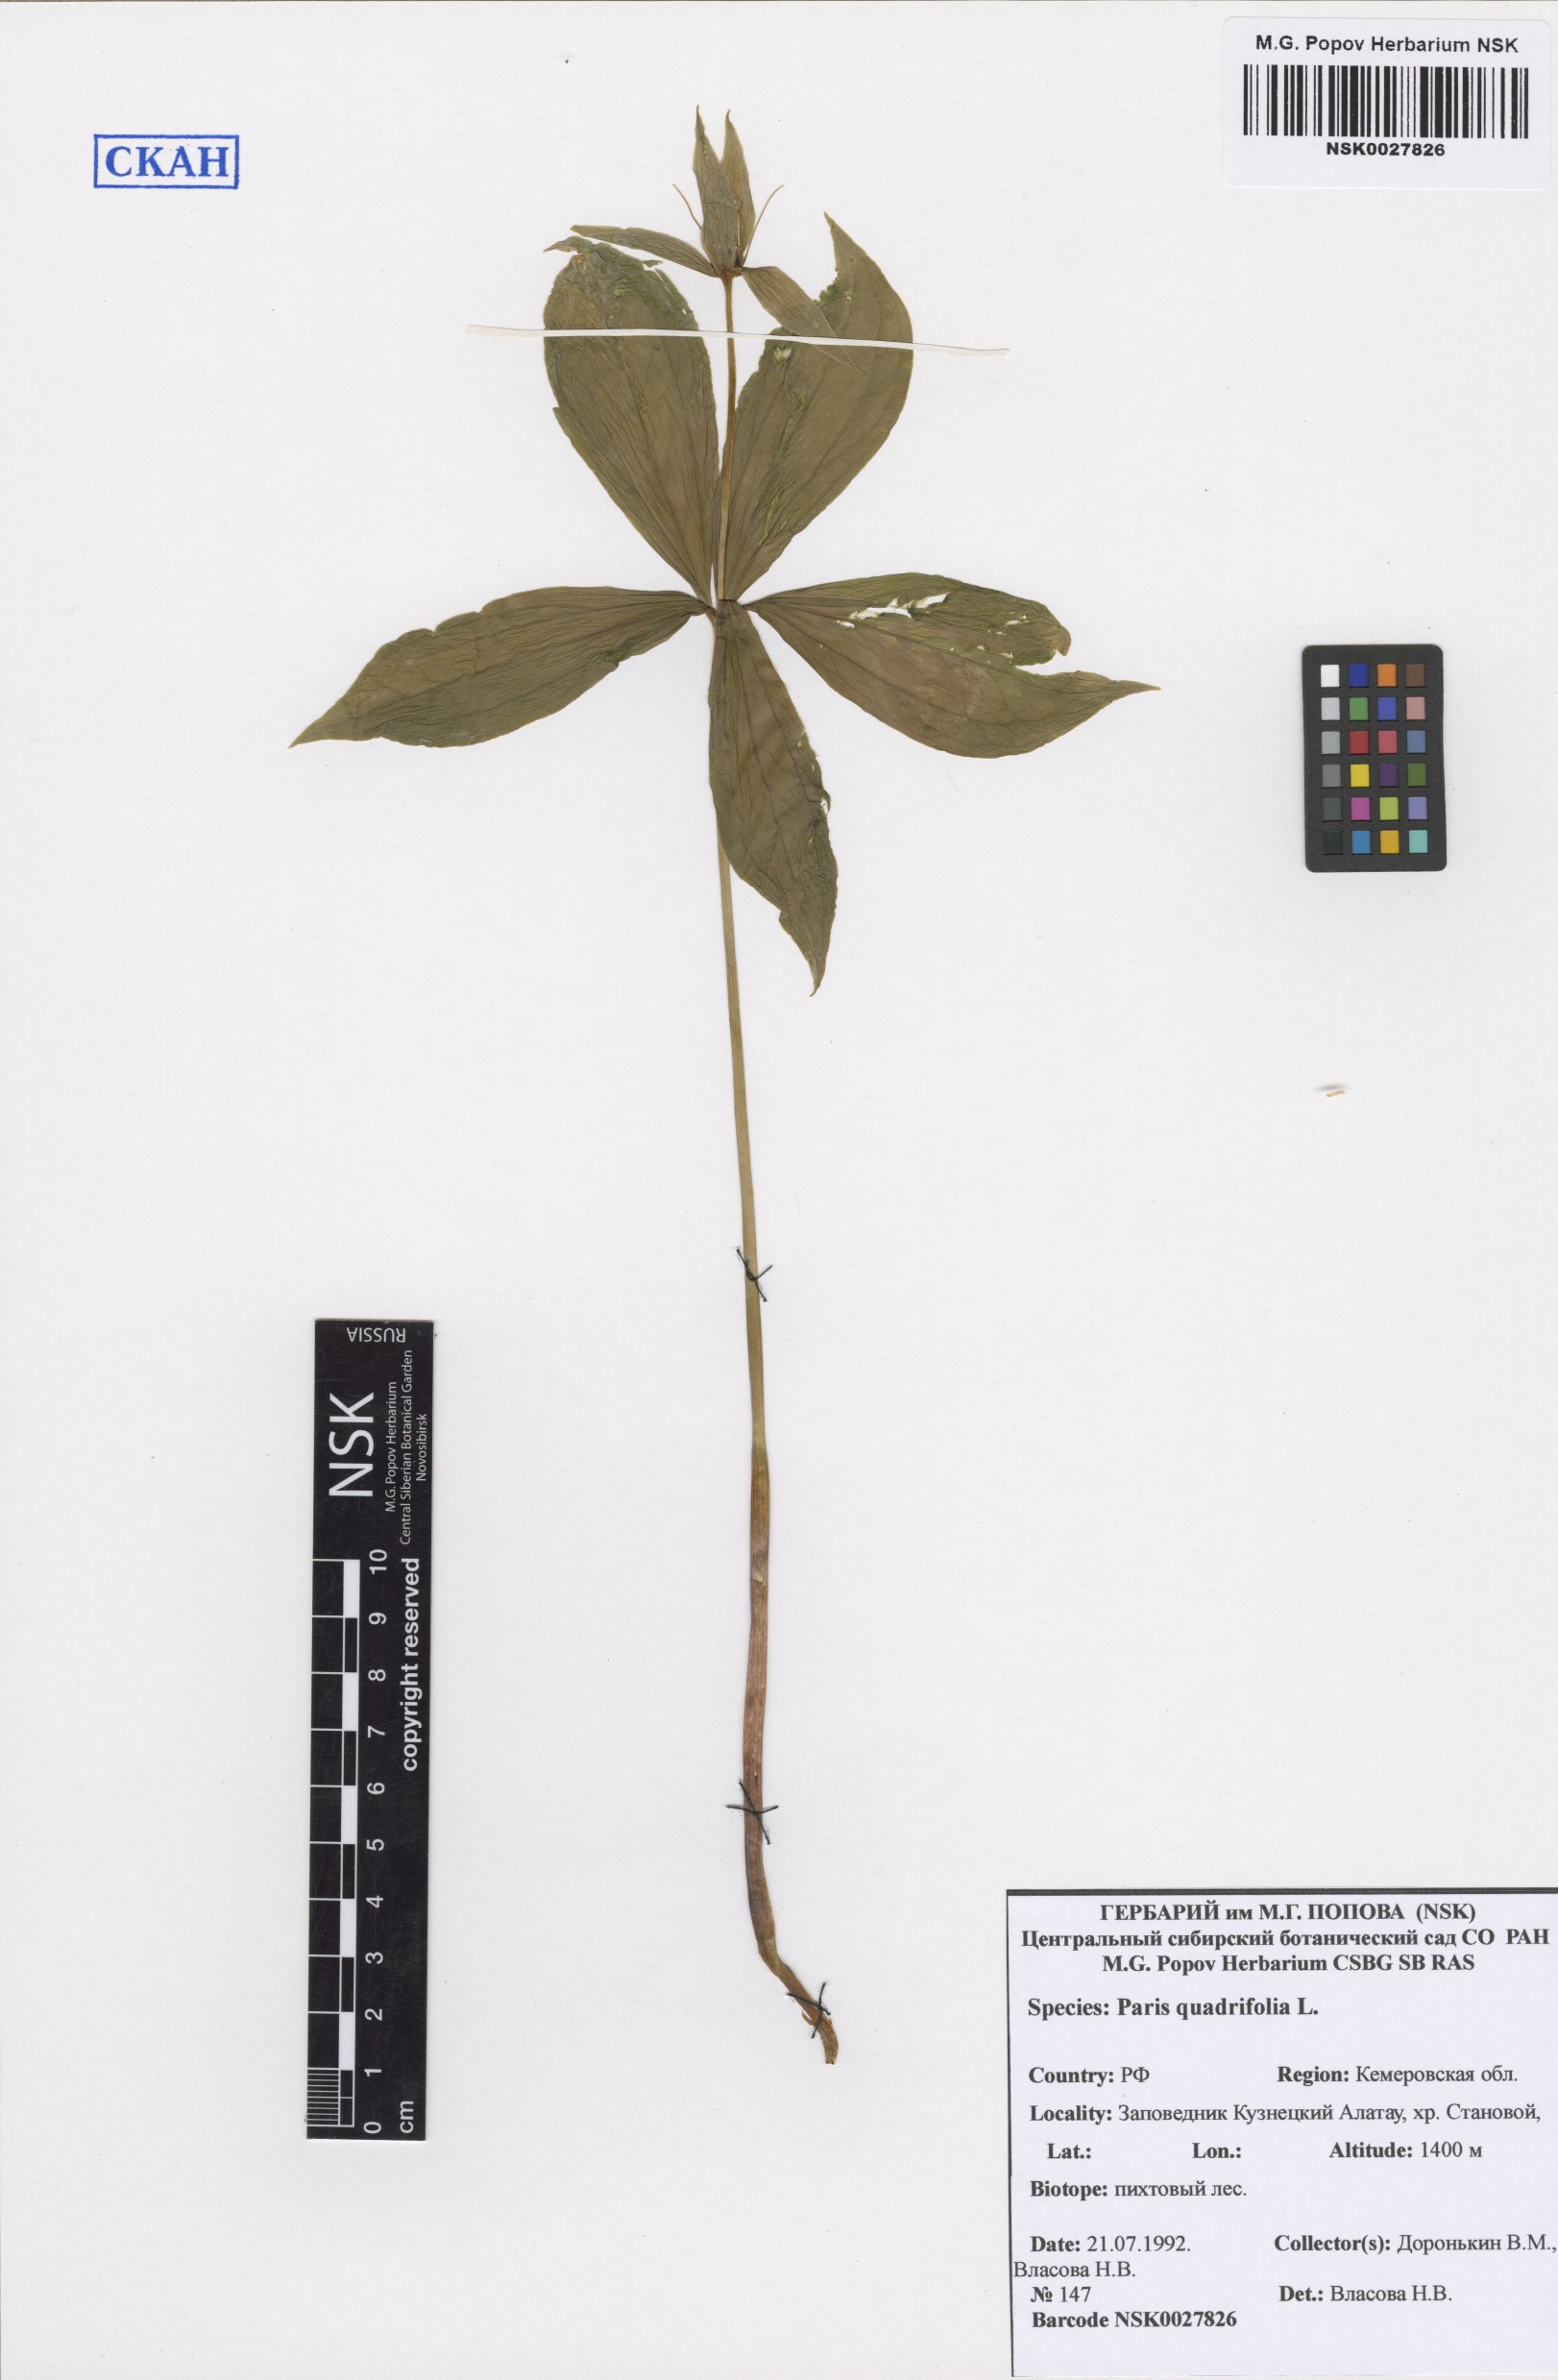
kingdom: Plantae
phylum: Tracheophyta
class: Liliopsida
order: Liliales
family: Melanthiaceae
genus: Paris
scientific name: Paris quadrifolia
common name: Herb-paris
